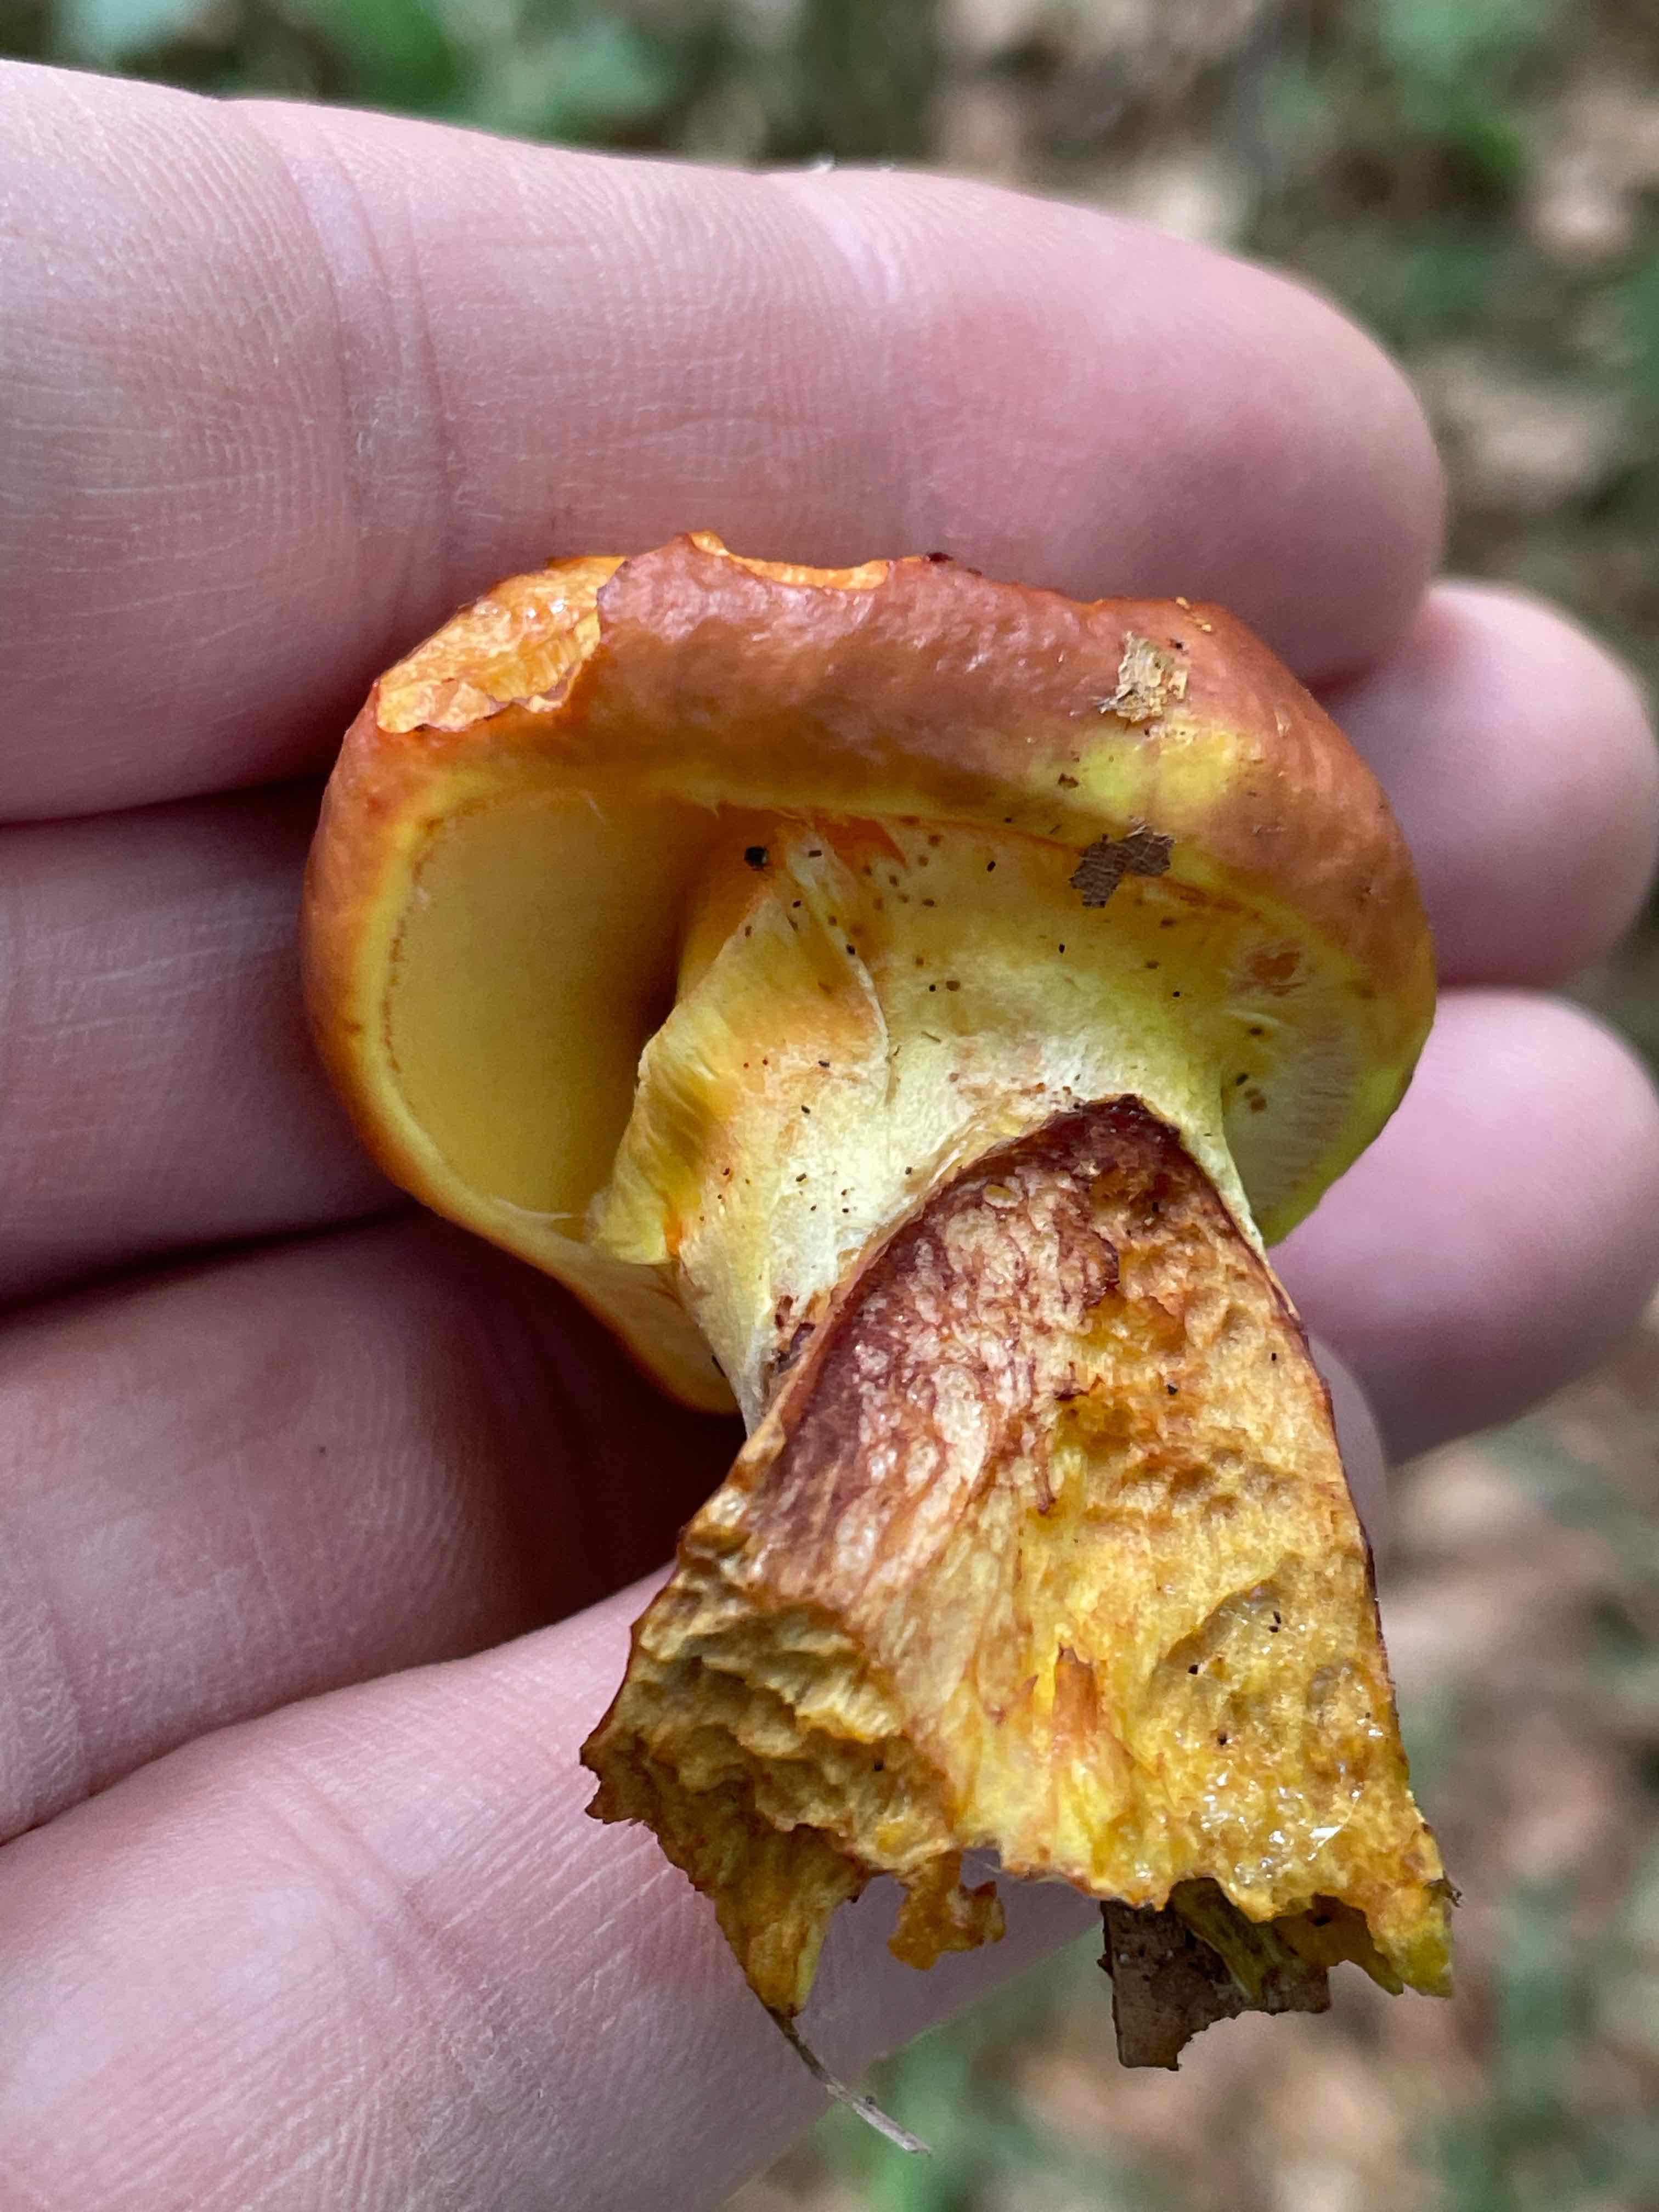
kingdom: Fungi
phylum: Basidiomycota
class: Agaricomycetes
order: Boletales
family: Suillaceae
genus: Suillus
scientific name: Suillus grevillei
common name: lærke-slimrørhat
